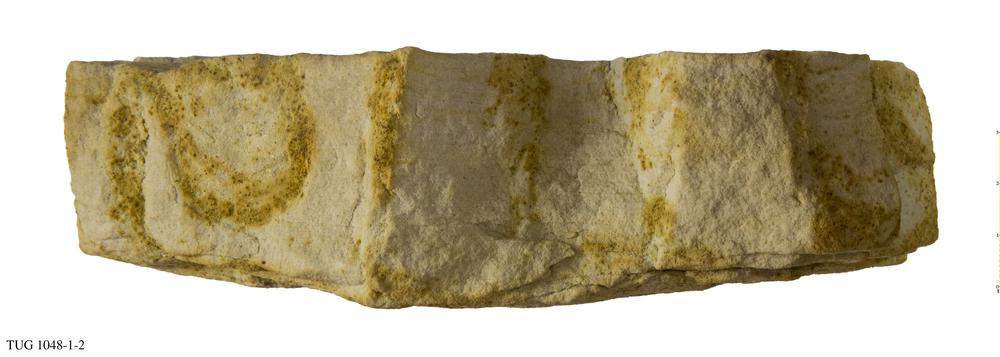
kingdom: Animalia
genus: Diplocraterion
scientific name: Diplocraterion
